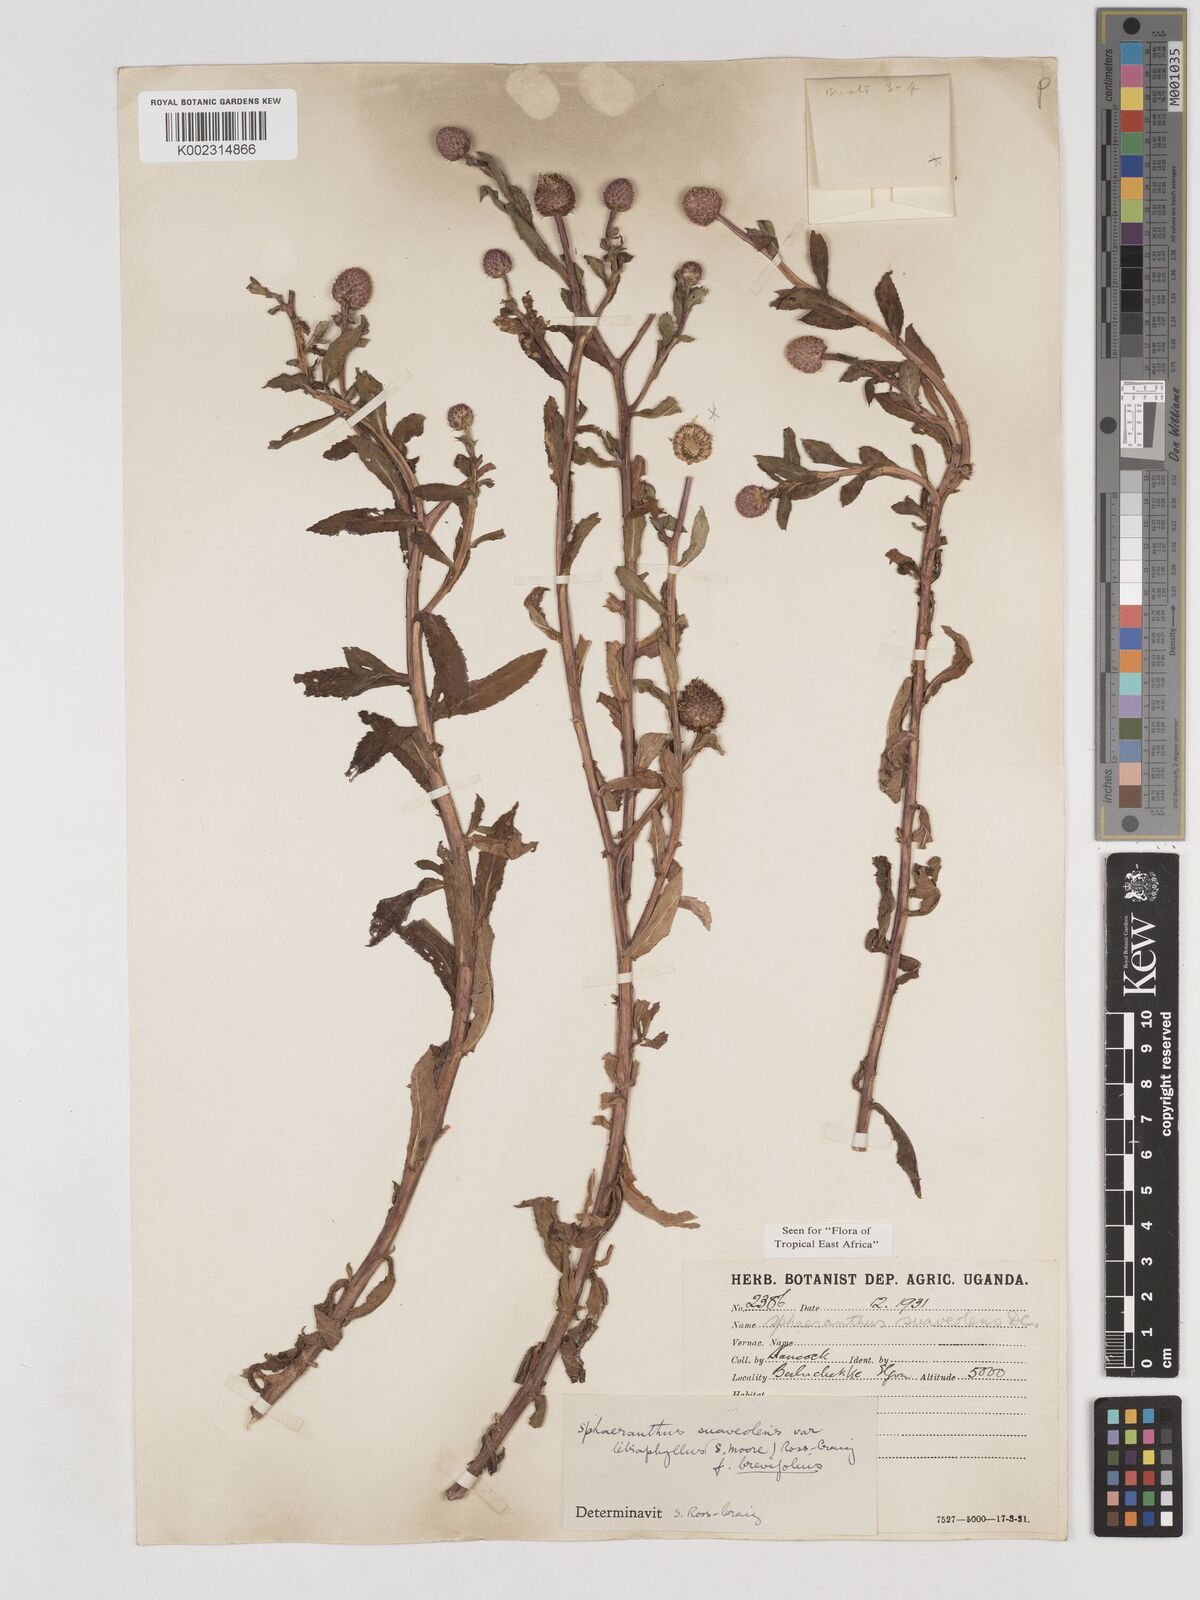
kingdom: Plantae
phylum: Tracheophyta
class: Magnoliopsida
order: Asterales
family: Asteraceae
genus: Sphaeranthus
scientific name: Sphaeranthus suaveolens
